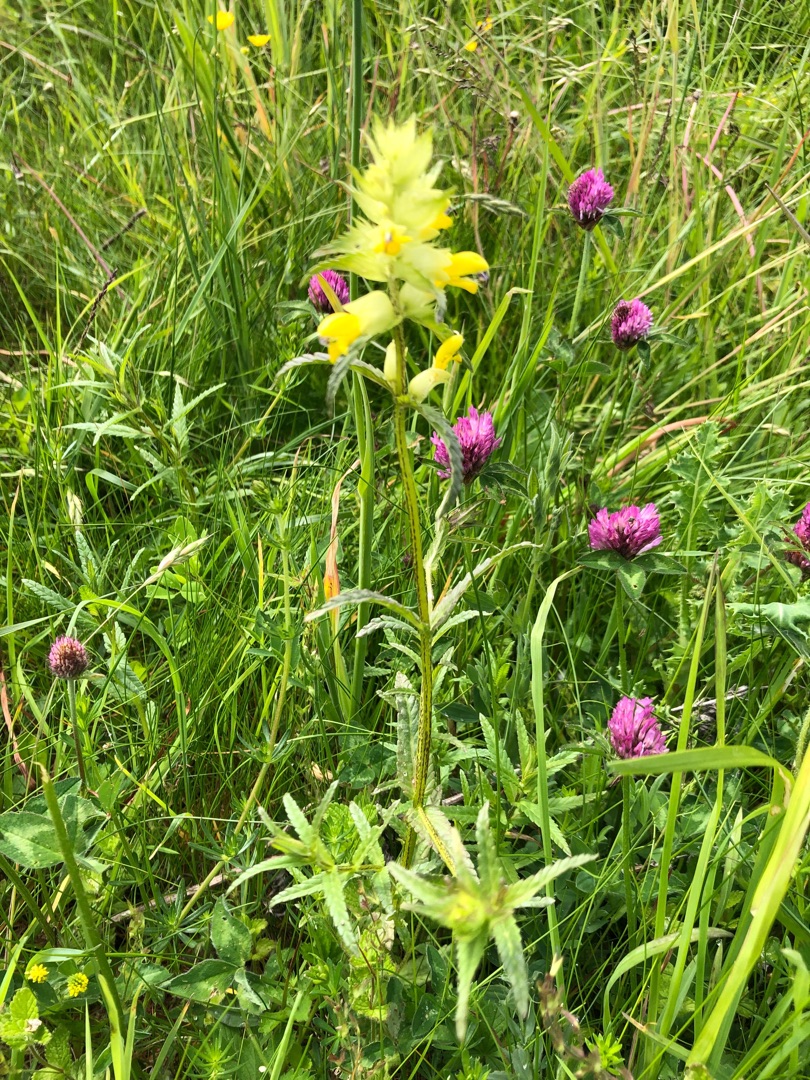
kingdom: Plantae
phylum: Tracheophyta
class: Magnoliopsida
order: Lamiales
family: Orobanchaceae
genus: Rhinanthus
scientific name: Rhinanthus
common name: Stor skjaller
